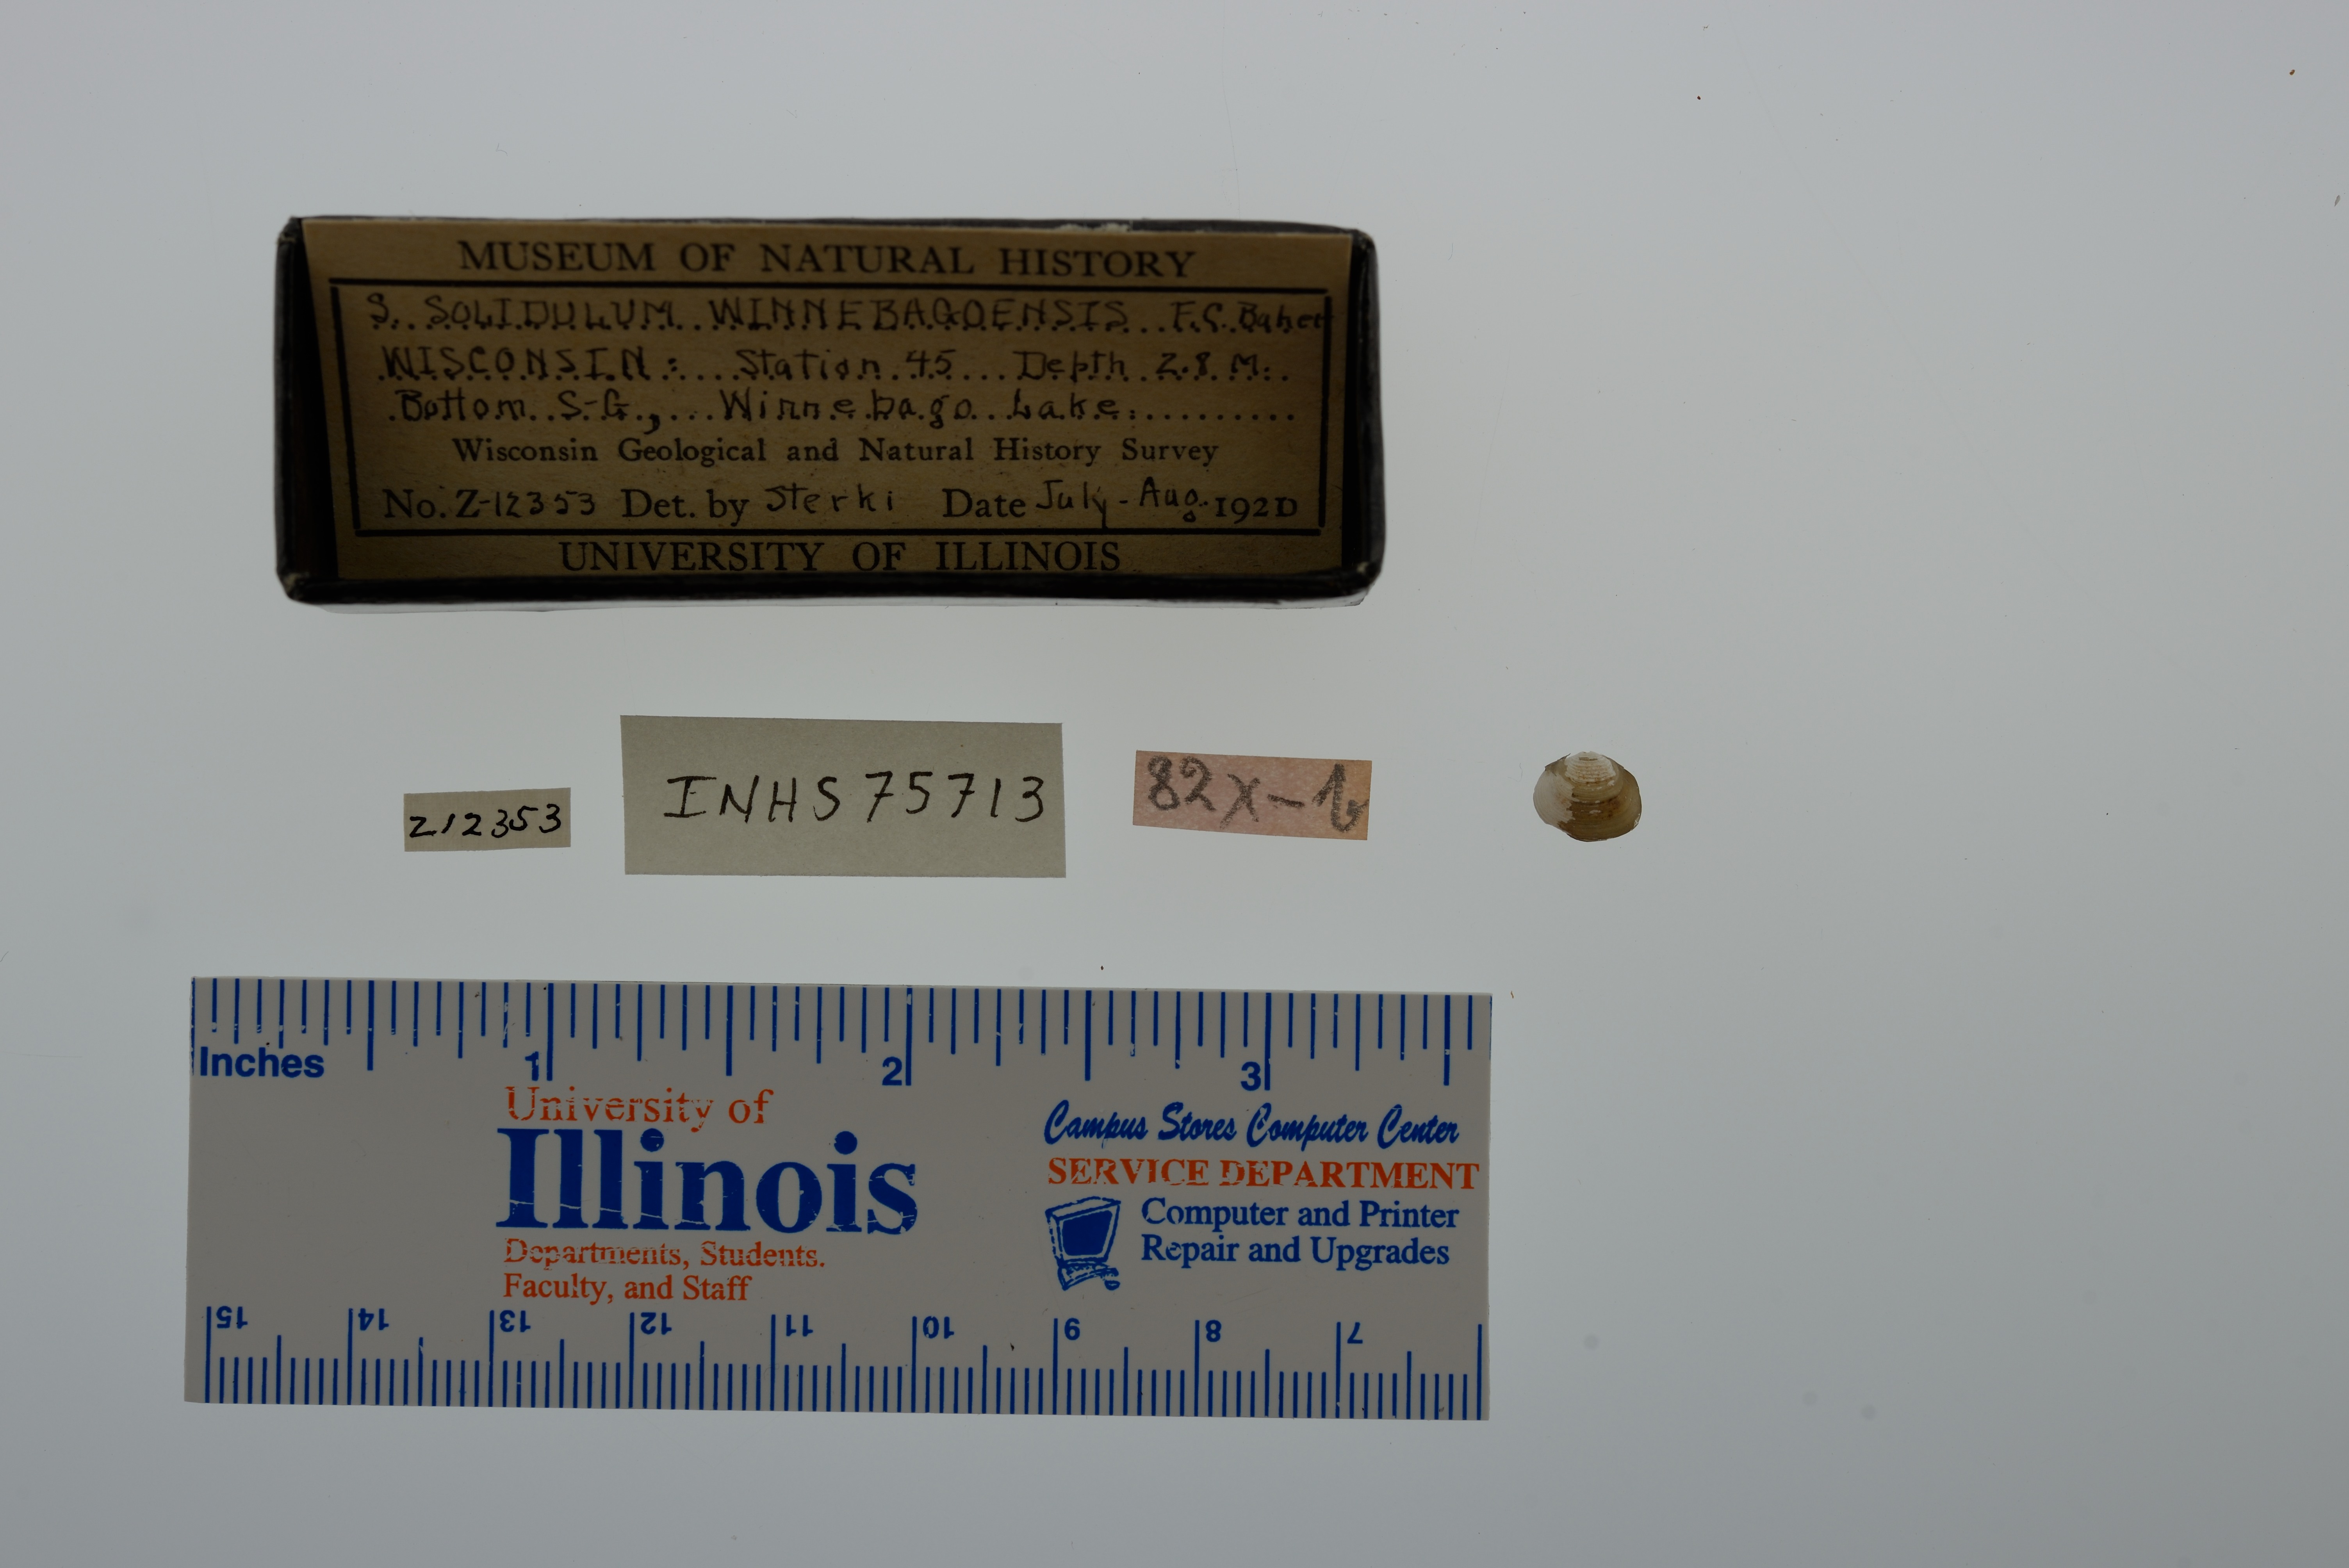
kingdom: Animalia
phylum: Mollusca
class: Bivalvia
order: Sphaeriida
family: Sphaeriidae
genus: Sphaerium
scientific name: Sphaerium striatinum
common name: Striated fingernailclam
